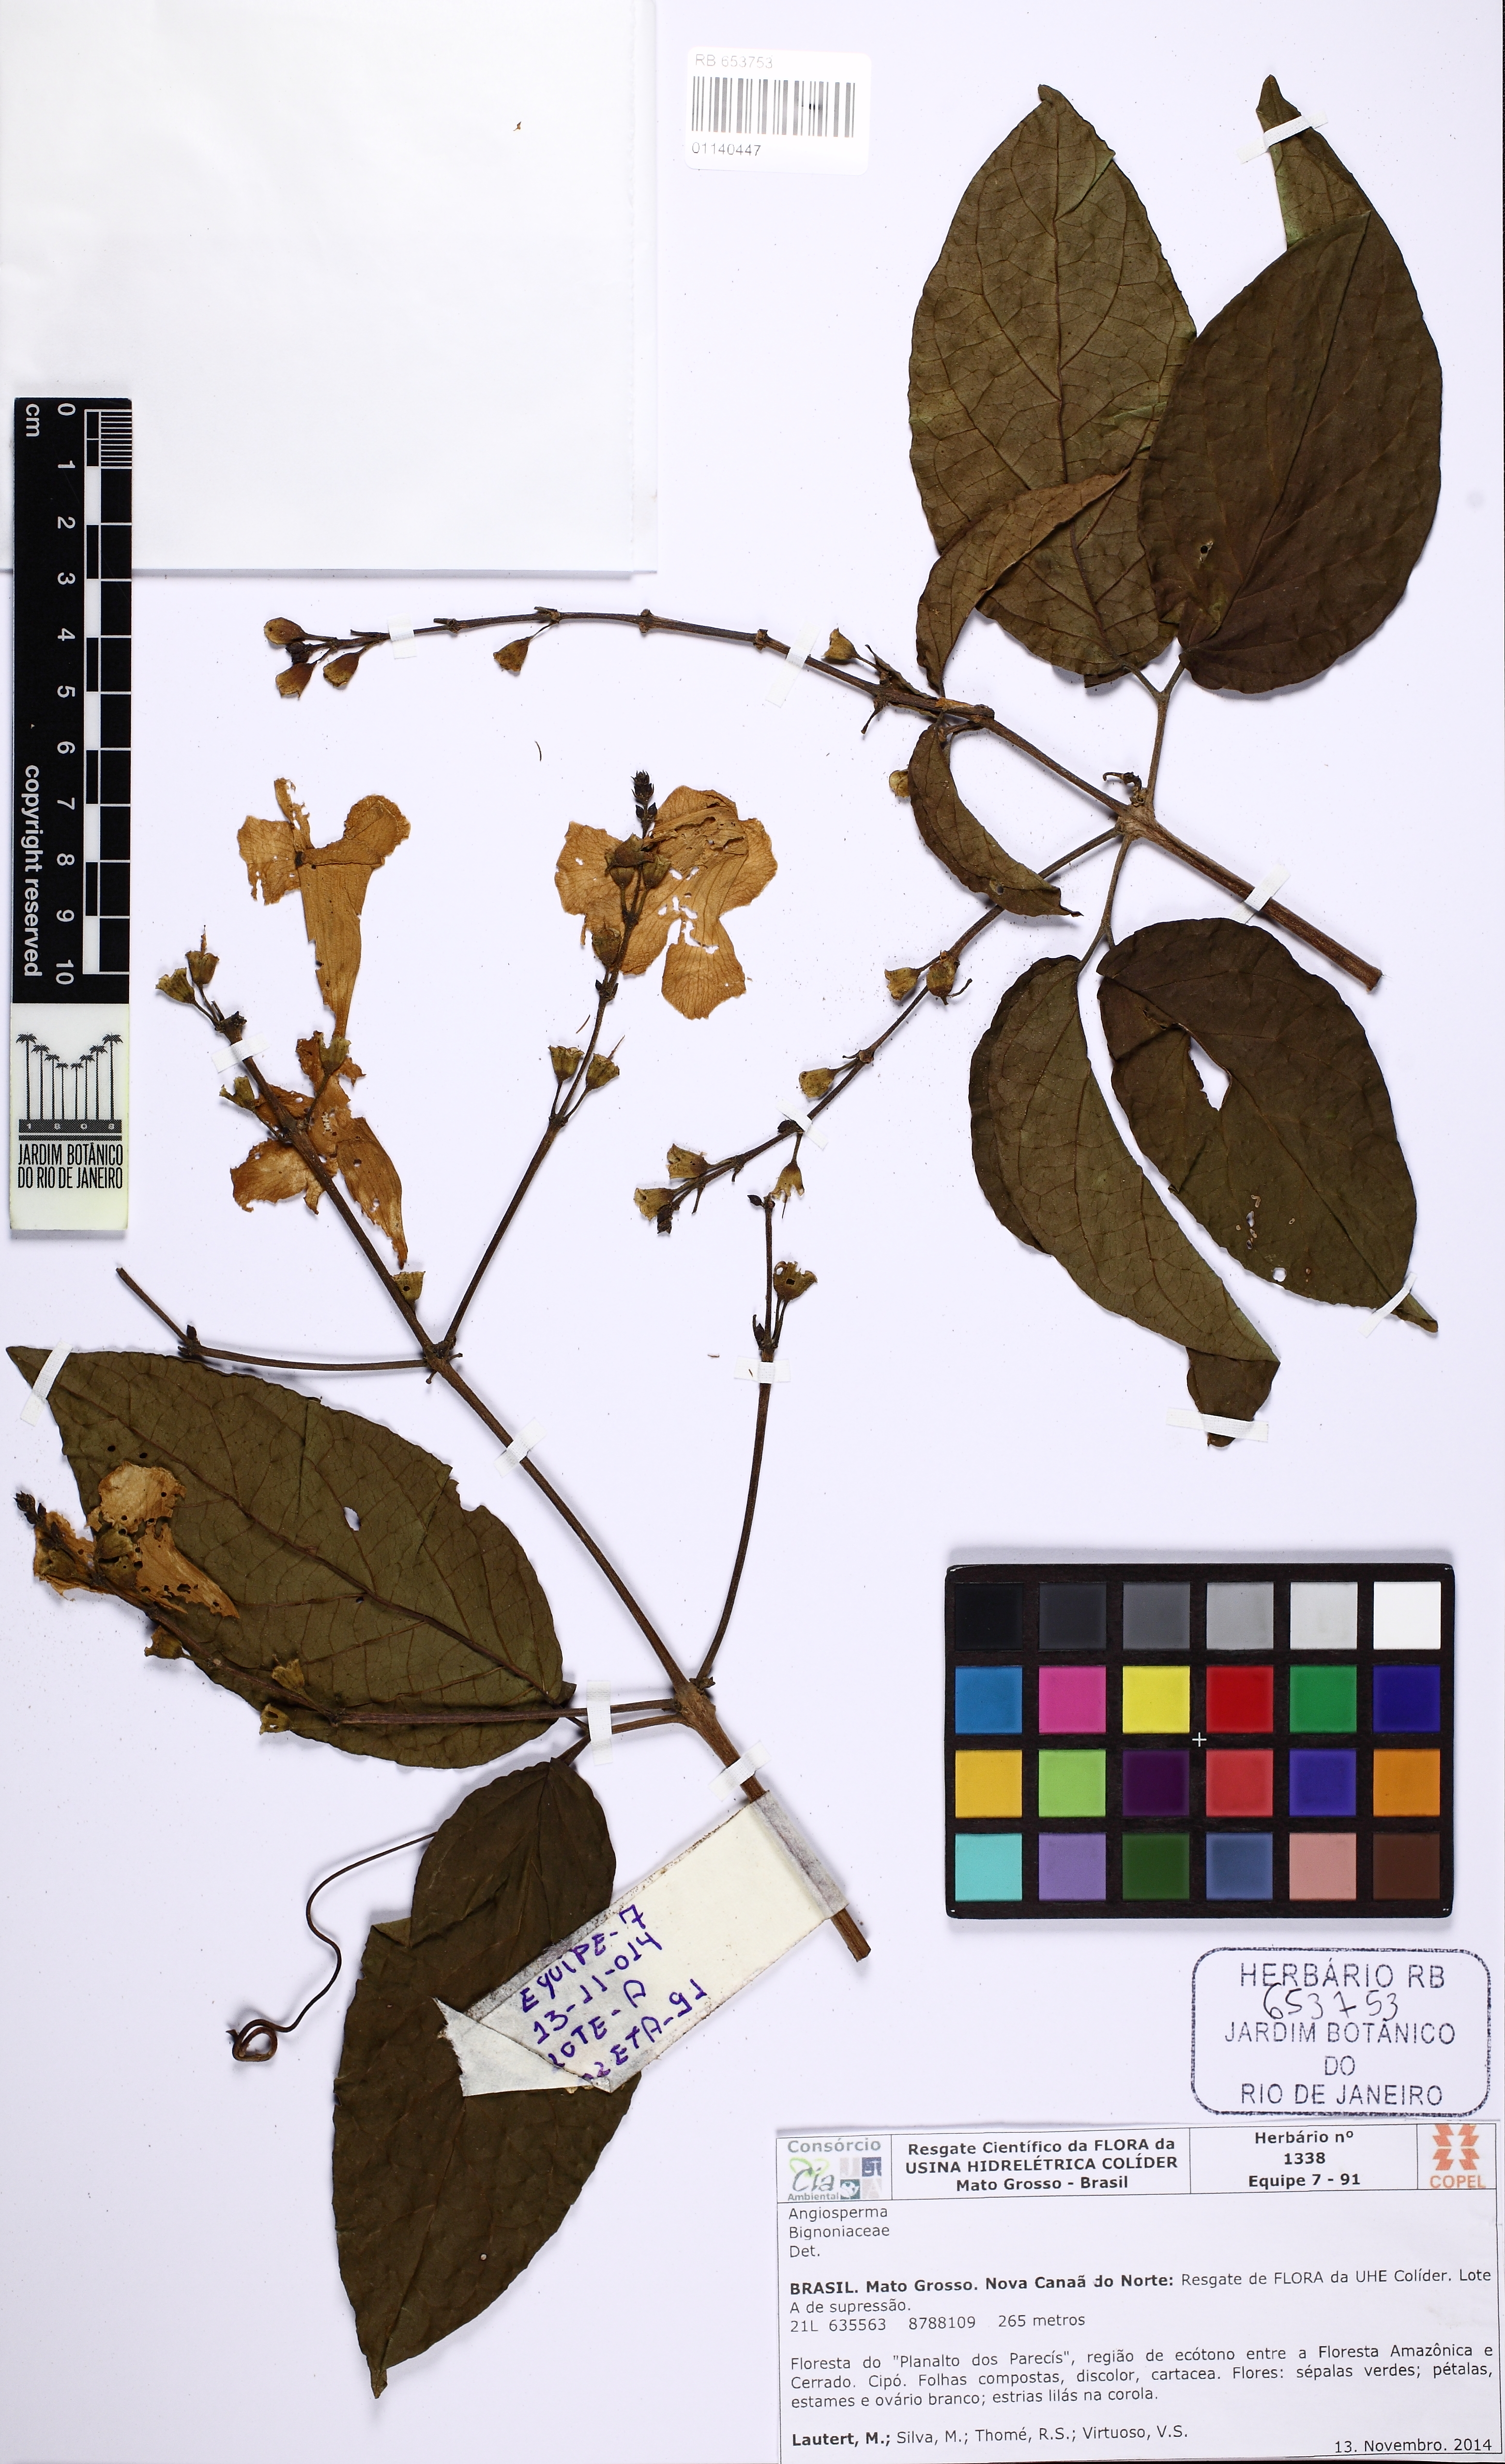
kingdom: Plantae
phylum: Tracheophyta
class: Magnoliopsida
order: Lamiales
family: Bignoniaceae
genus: Tanaecium
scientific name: Tanaecium revillae
